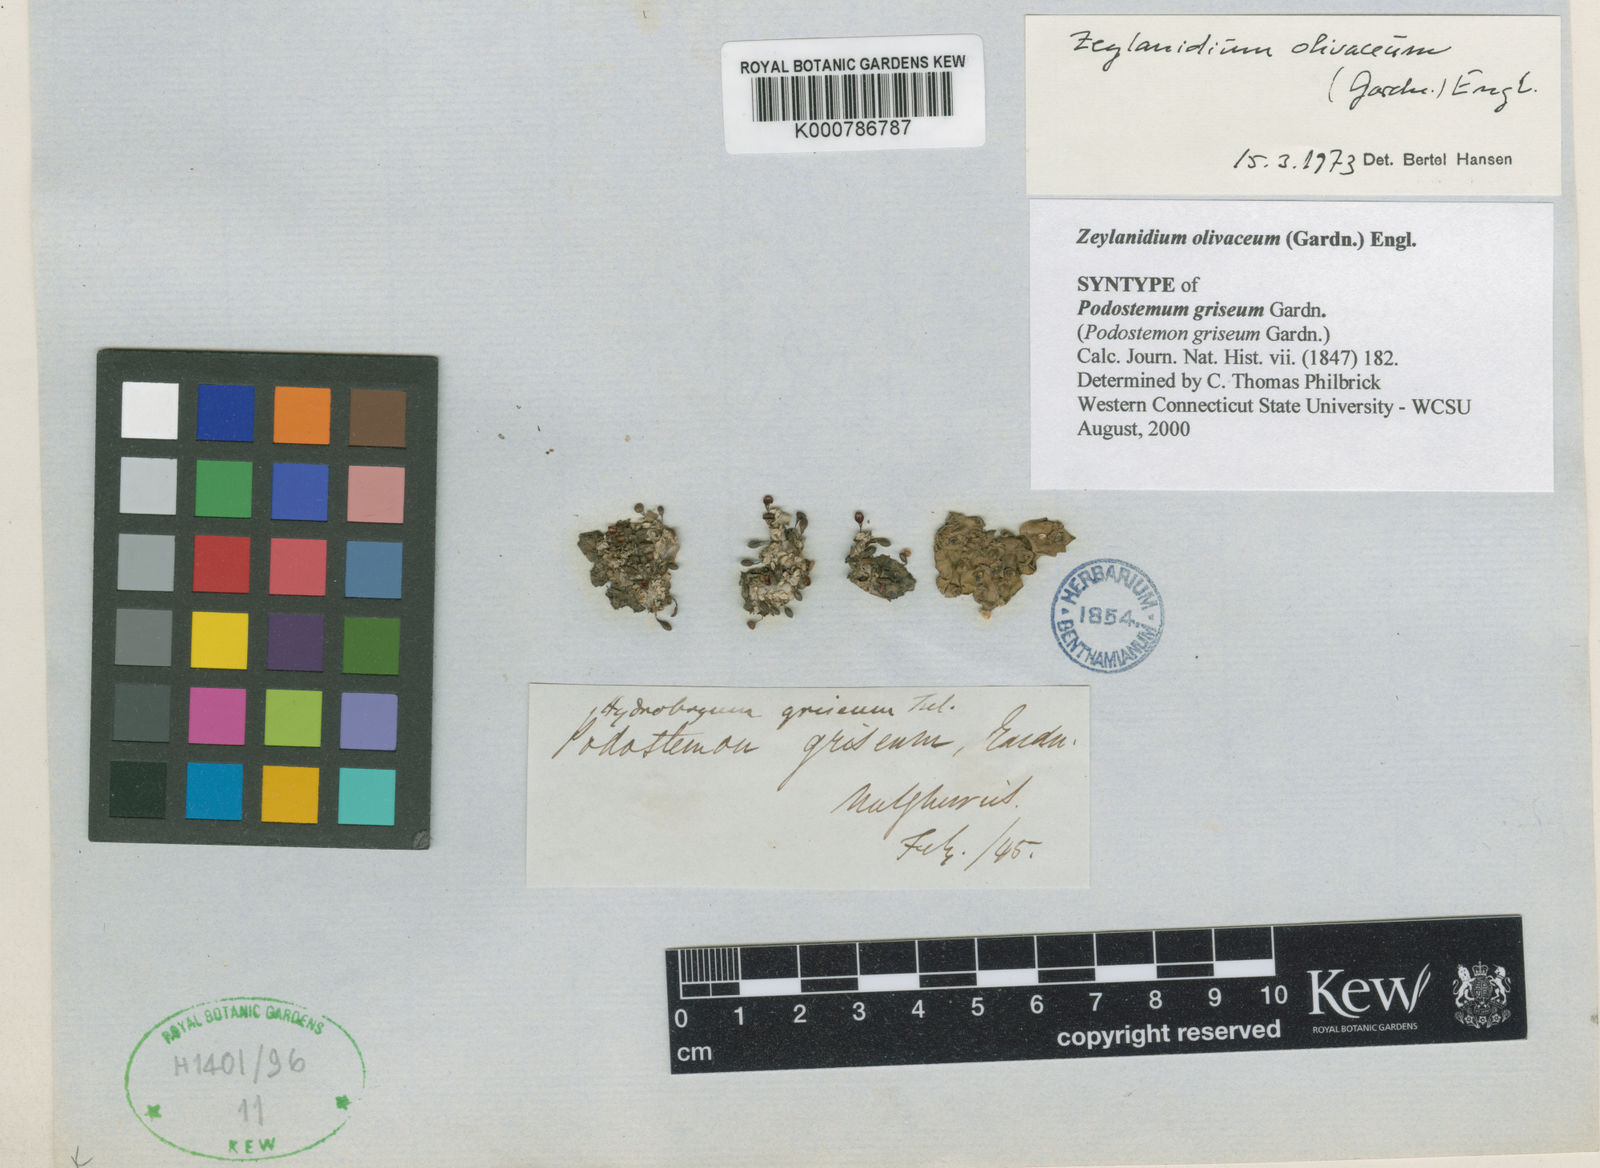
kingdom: Plantae
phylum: Tracheophyta
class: Magnoliopsida
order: Malpighiales
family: Podostemaceae
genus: Zeylanidium
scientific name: Zeylanidium olivaceum
